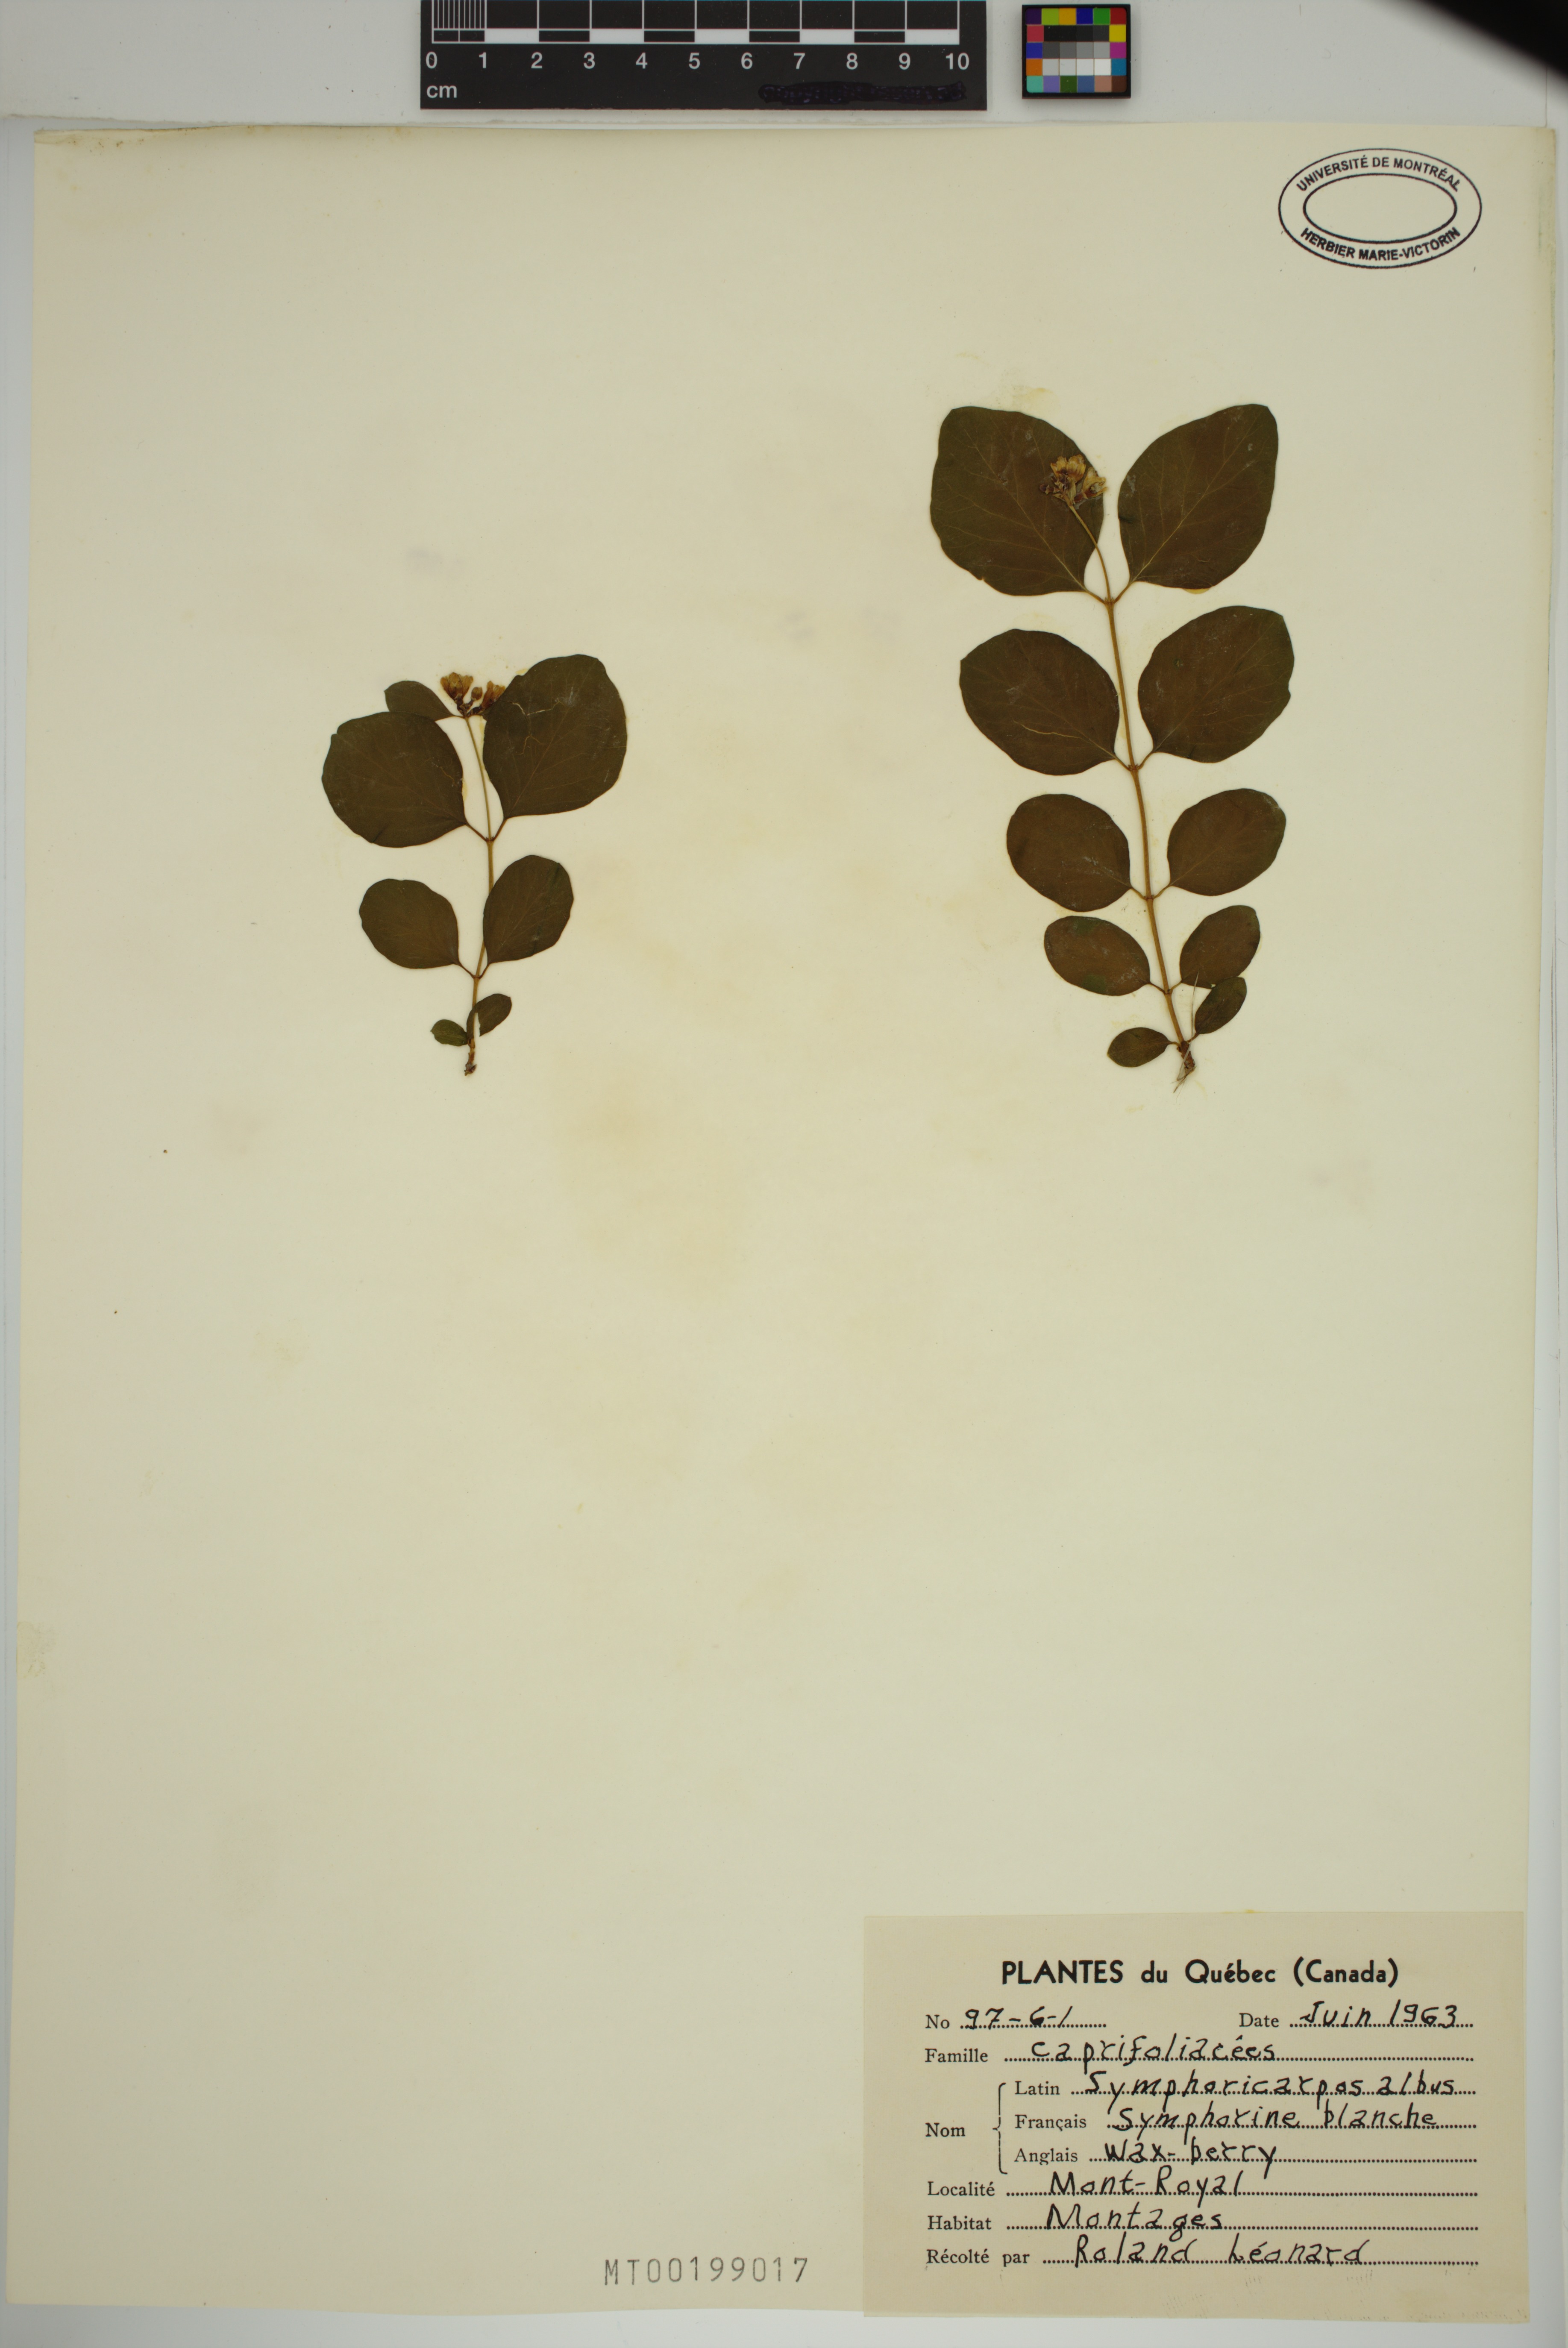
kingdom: Plantae
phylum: Tracheophyta
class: Magnoliopsida
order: Dipsacales
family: Caprifoliaceae
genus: Symphoricarpos
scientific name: Symphoricarpos albus
